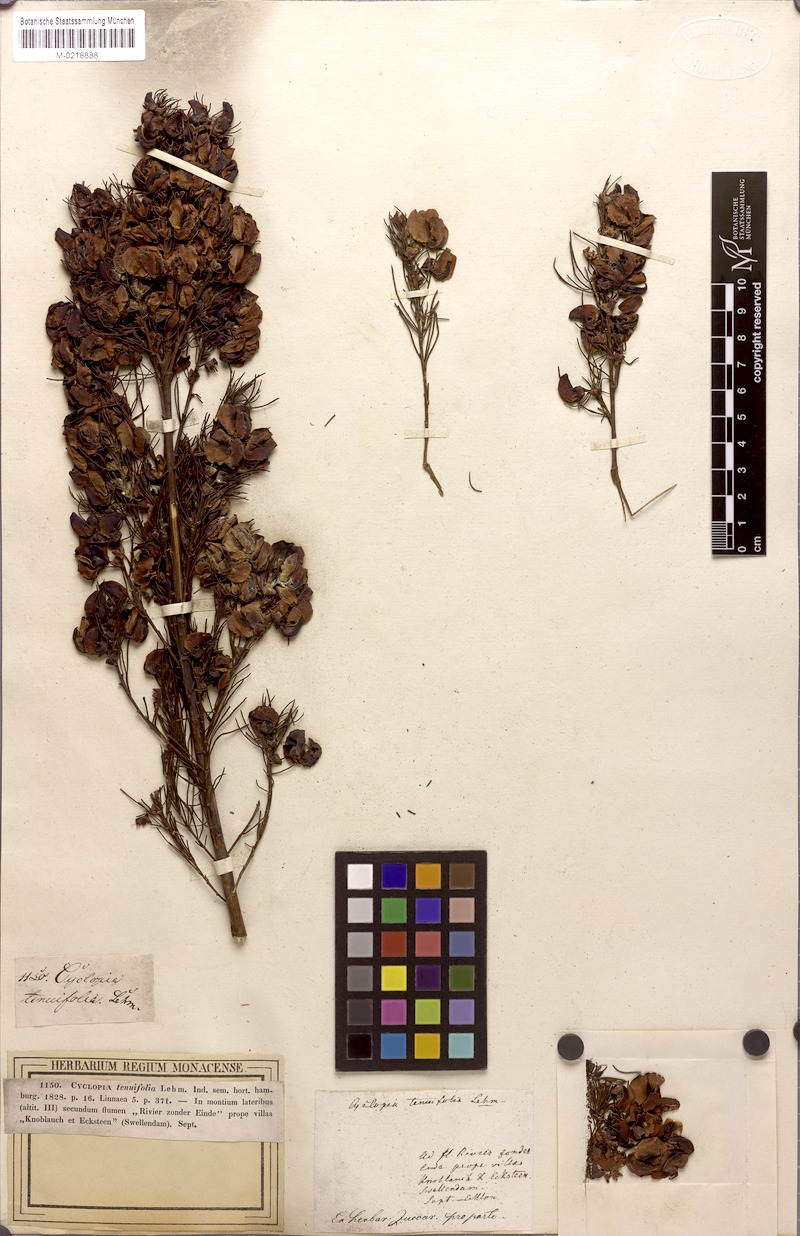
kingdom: Plantae
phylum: Tracheophyta
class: Magnoliopsida
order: Fabales
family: Fabaceae
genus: Cyclopia
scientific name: Cyclopia maculata
